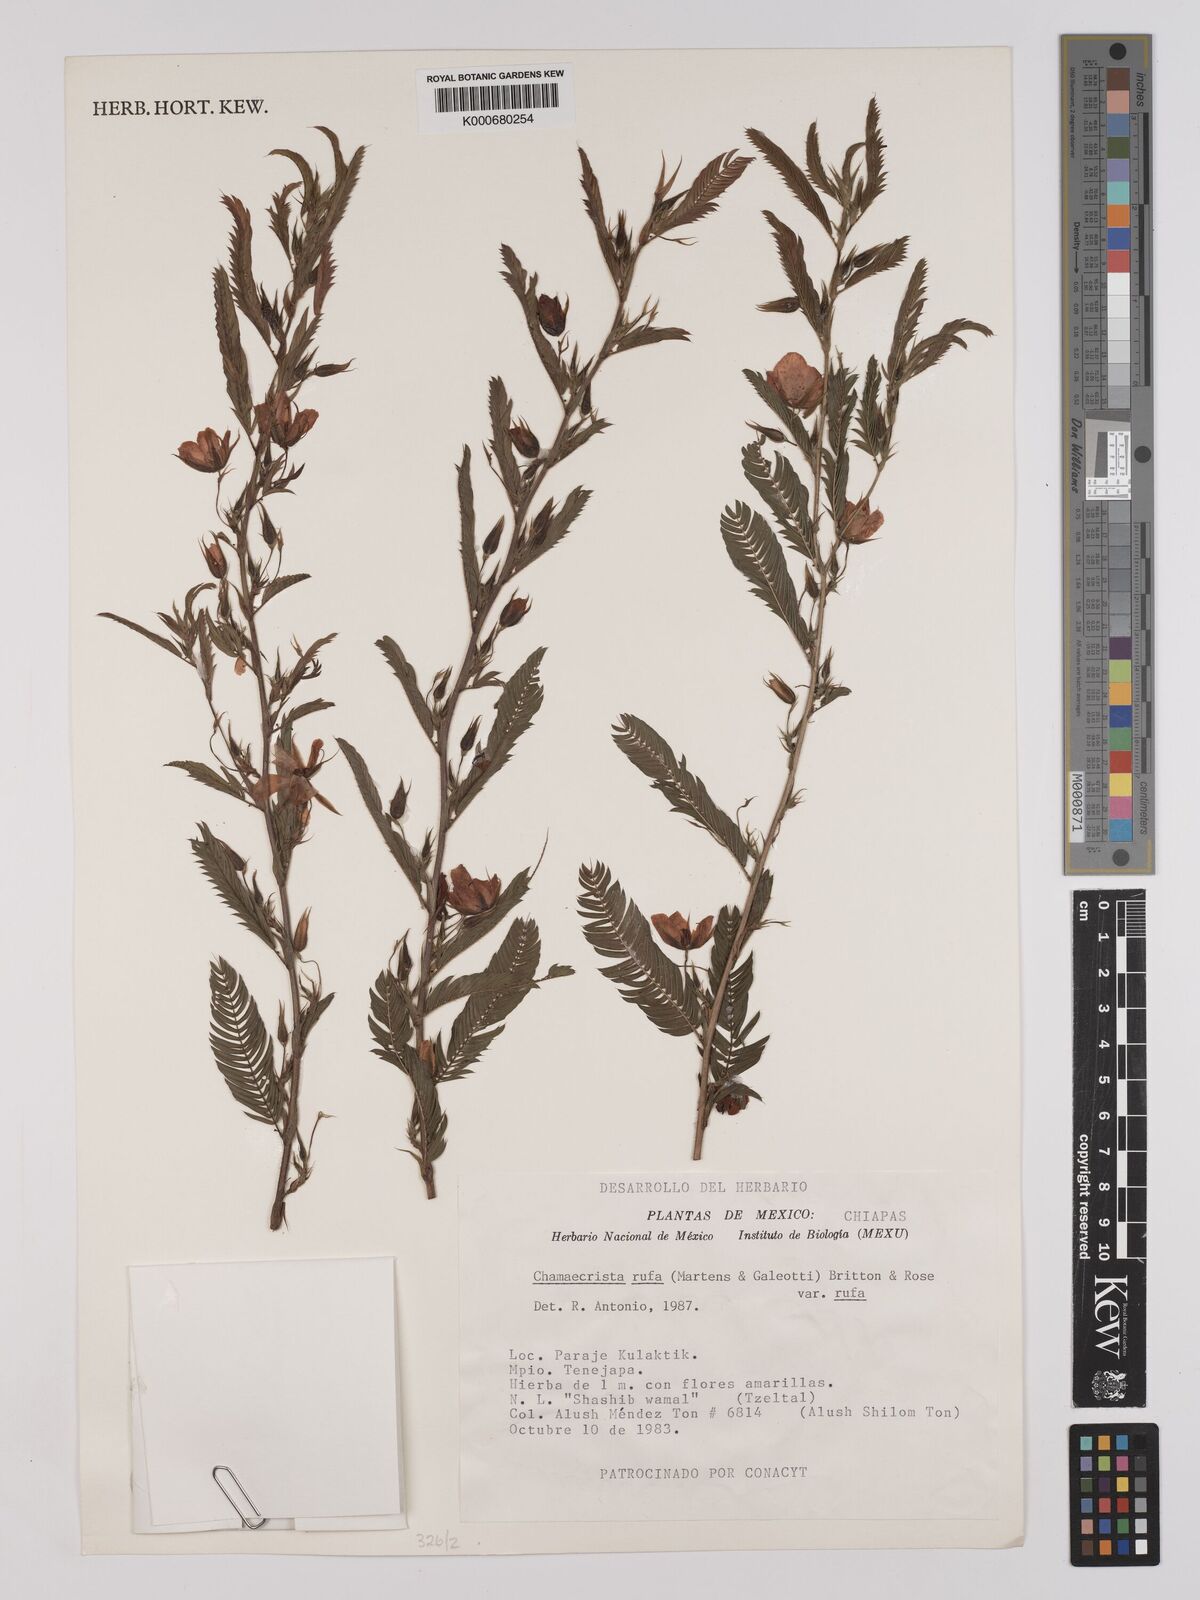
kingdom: Plantae
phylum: Tracheophyta
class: Magnoliopsida
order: Fabales
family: Fabaceae
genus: Chamaecrista
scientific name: Chamaecrista rufa
